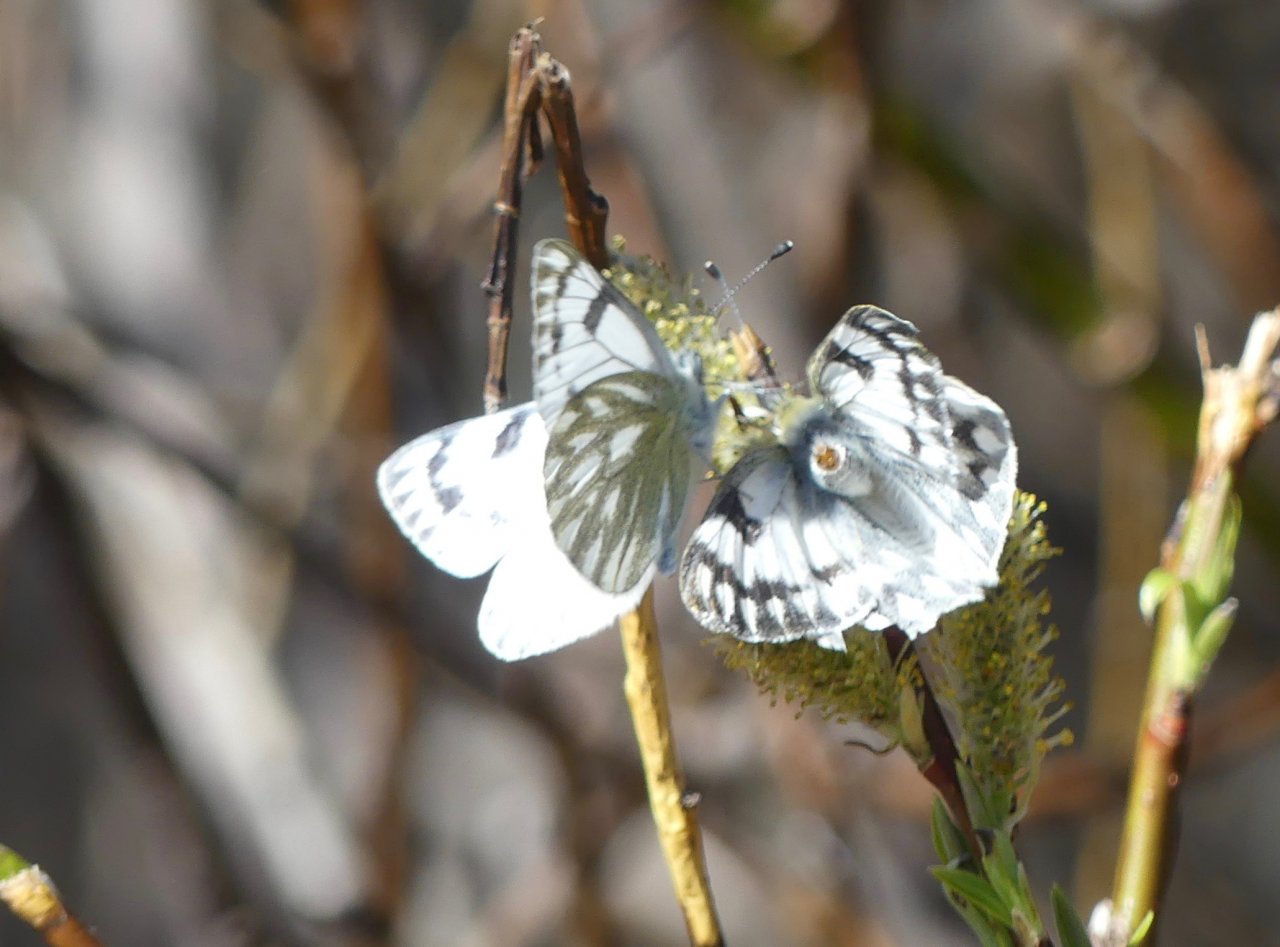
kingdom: Animalia
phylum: Arthropoda
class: Insecta
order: Lepidoptera
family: Pieridae
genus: Pontia
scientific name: Pontia occidentalis
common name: Western White
